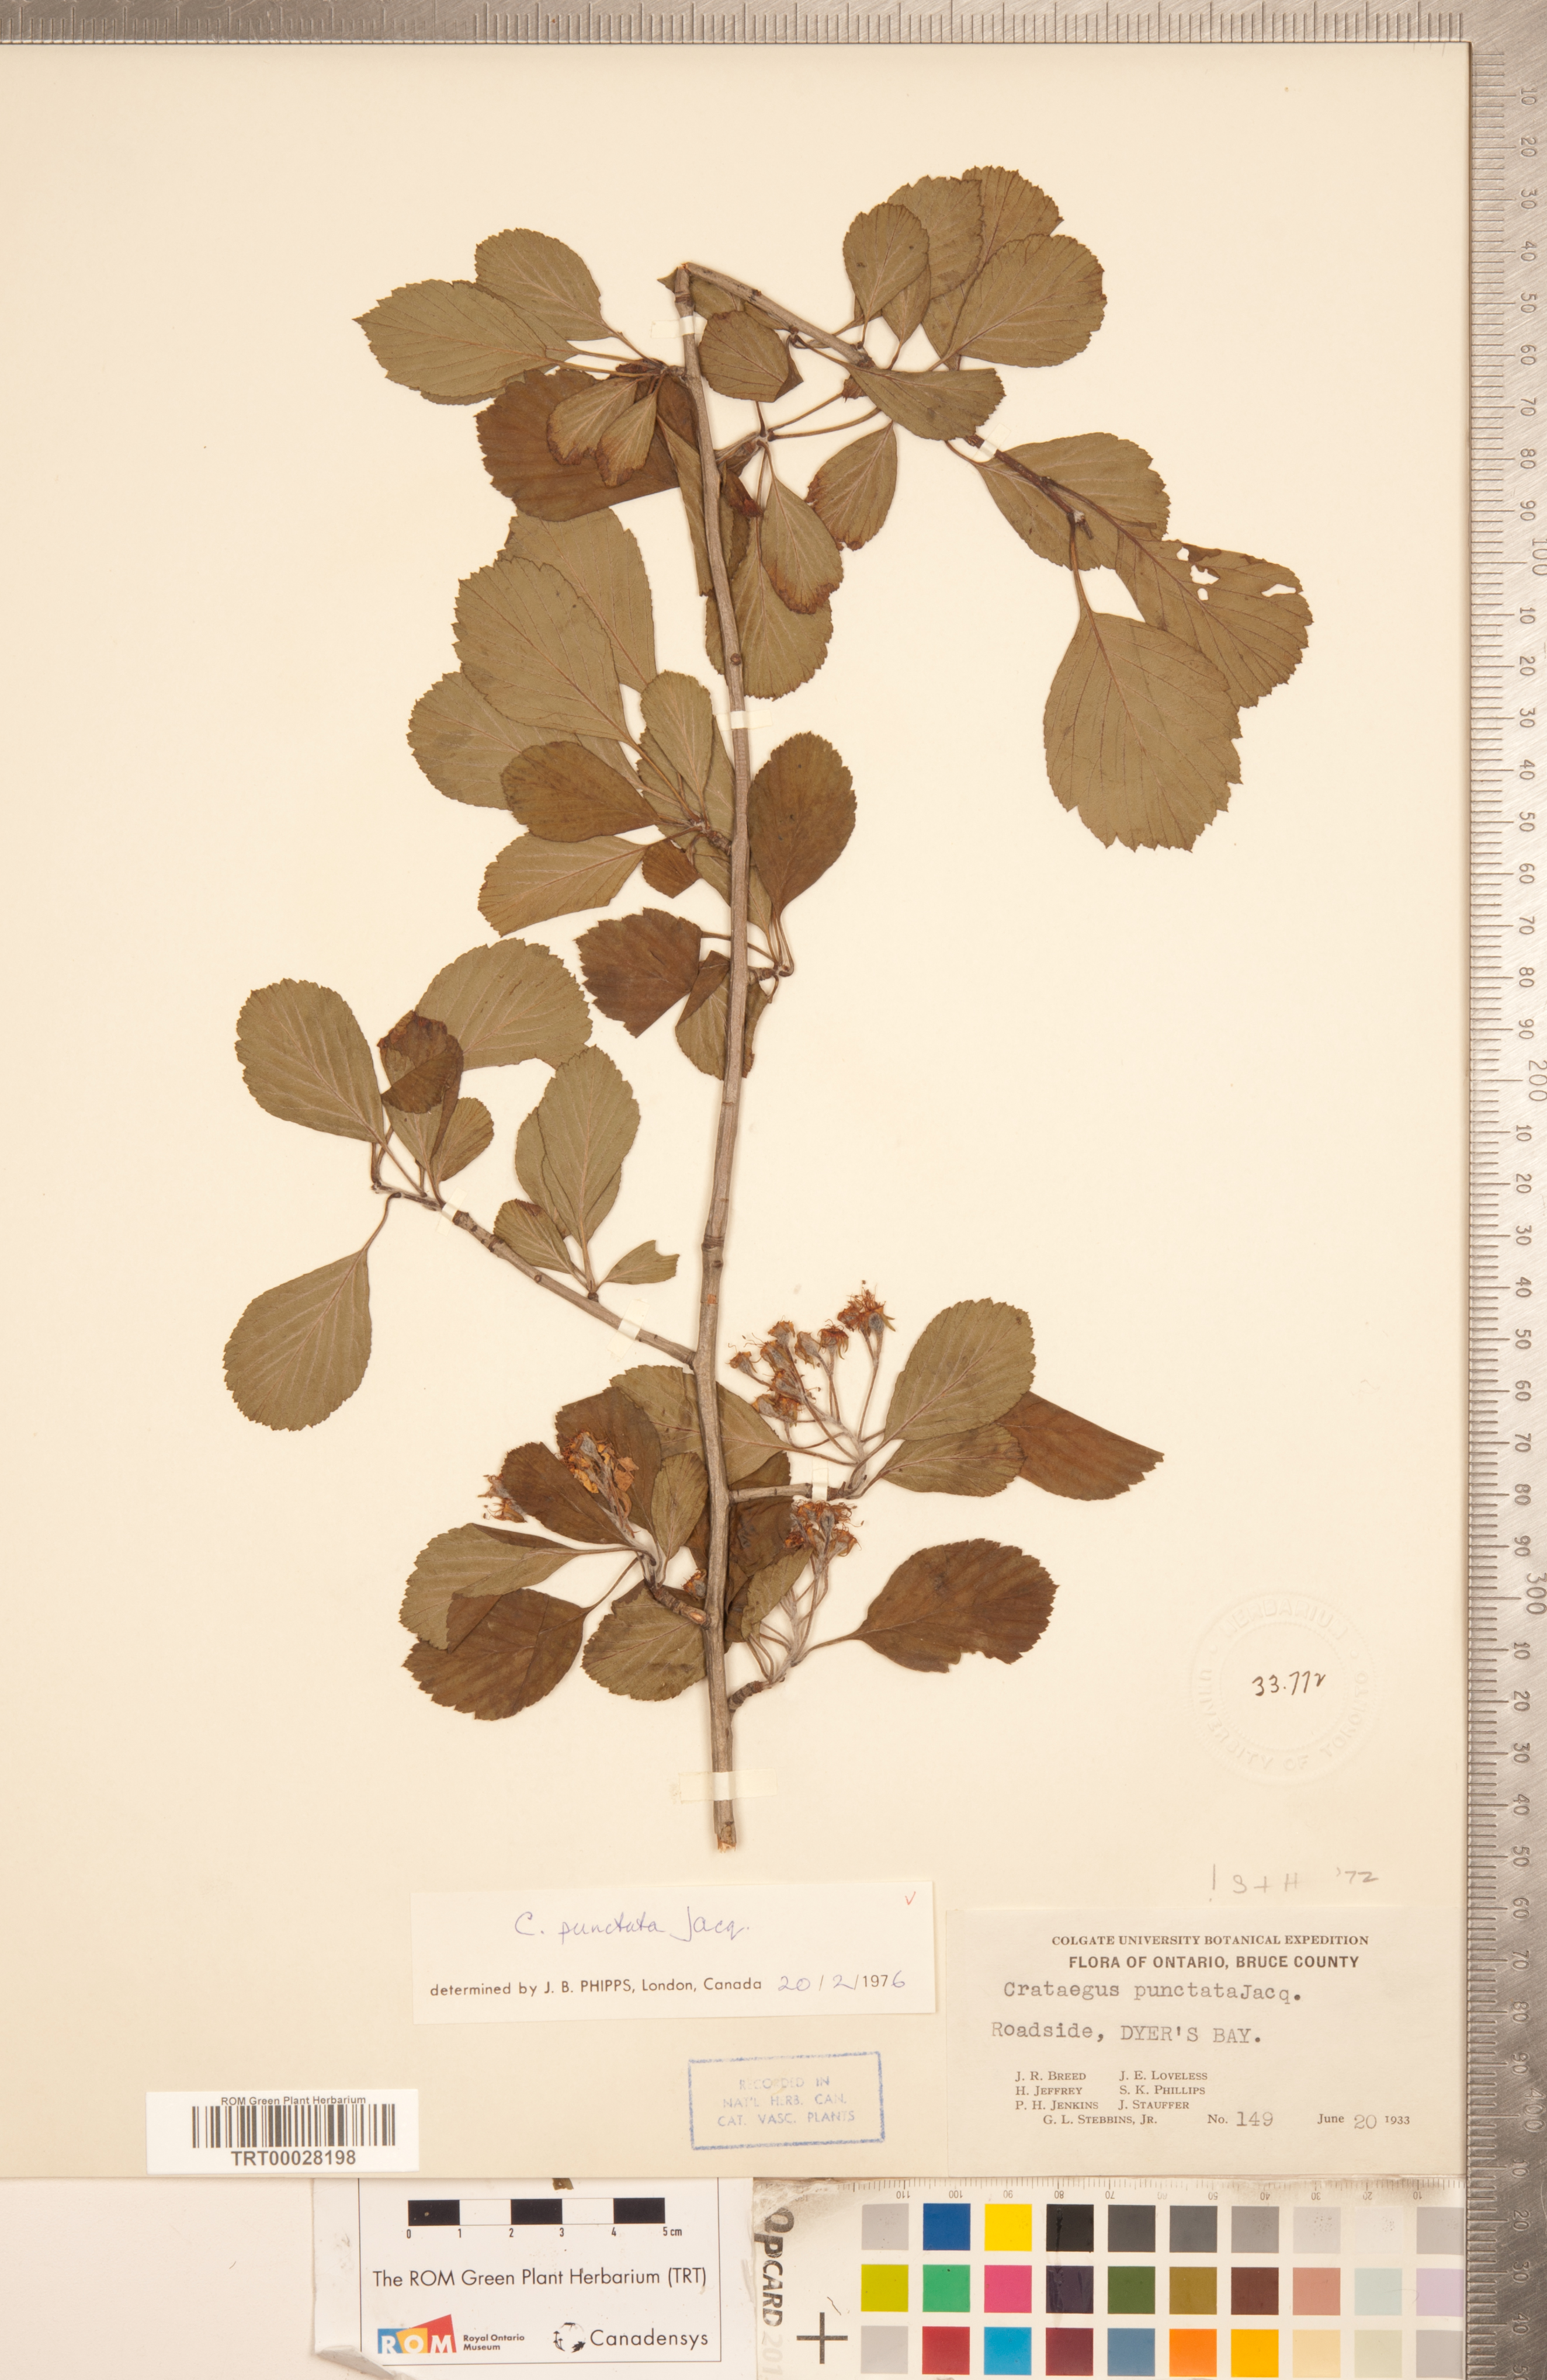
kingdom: Plantae
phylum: Tracheophyta
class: Magnoliopsida
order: Rosales
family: Rosaceae
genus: Crataegus
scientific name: Crataegus punctata
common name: Dotted hawthorn
